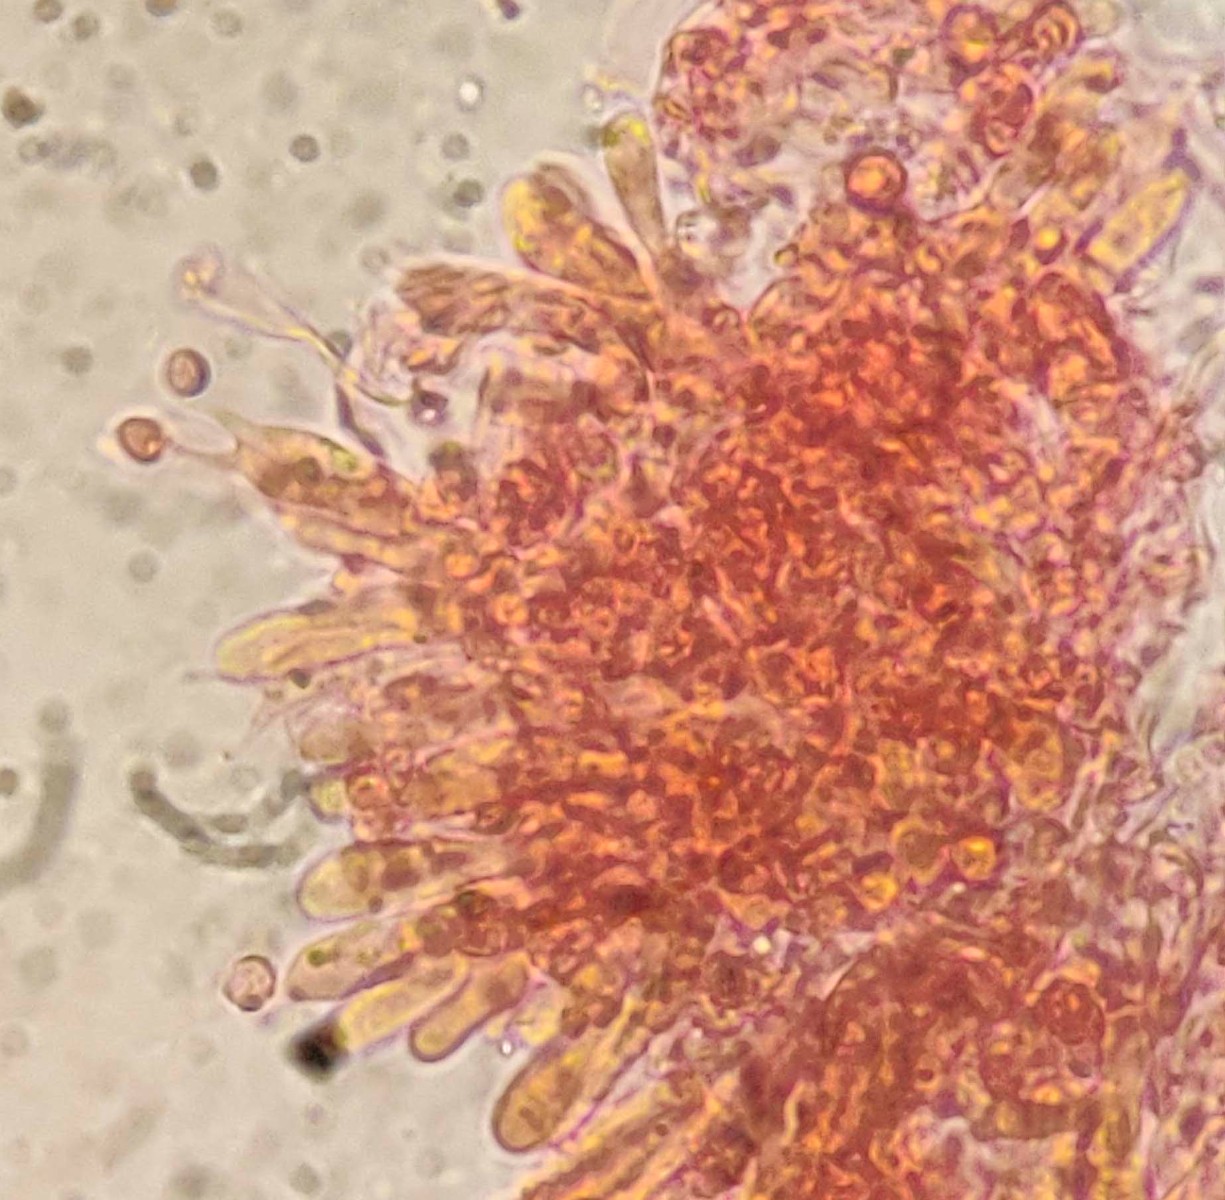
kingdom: Fungi
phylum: Basidiomycota
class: Agaricomycetes
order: Agaricales
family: Clavariaceae
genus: Ramariopsis
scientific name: Ramariopsis
